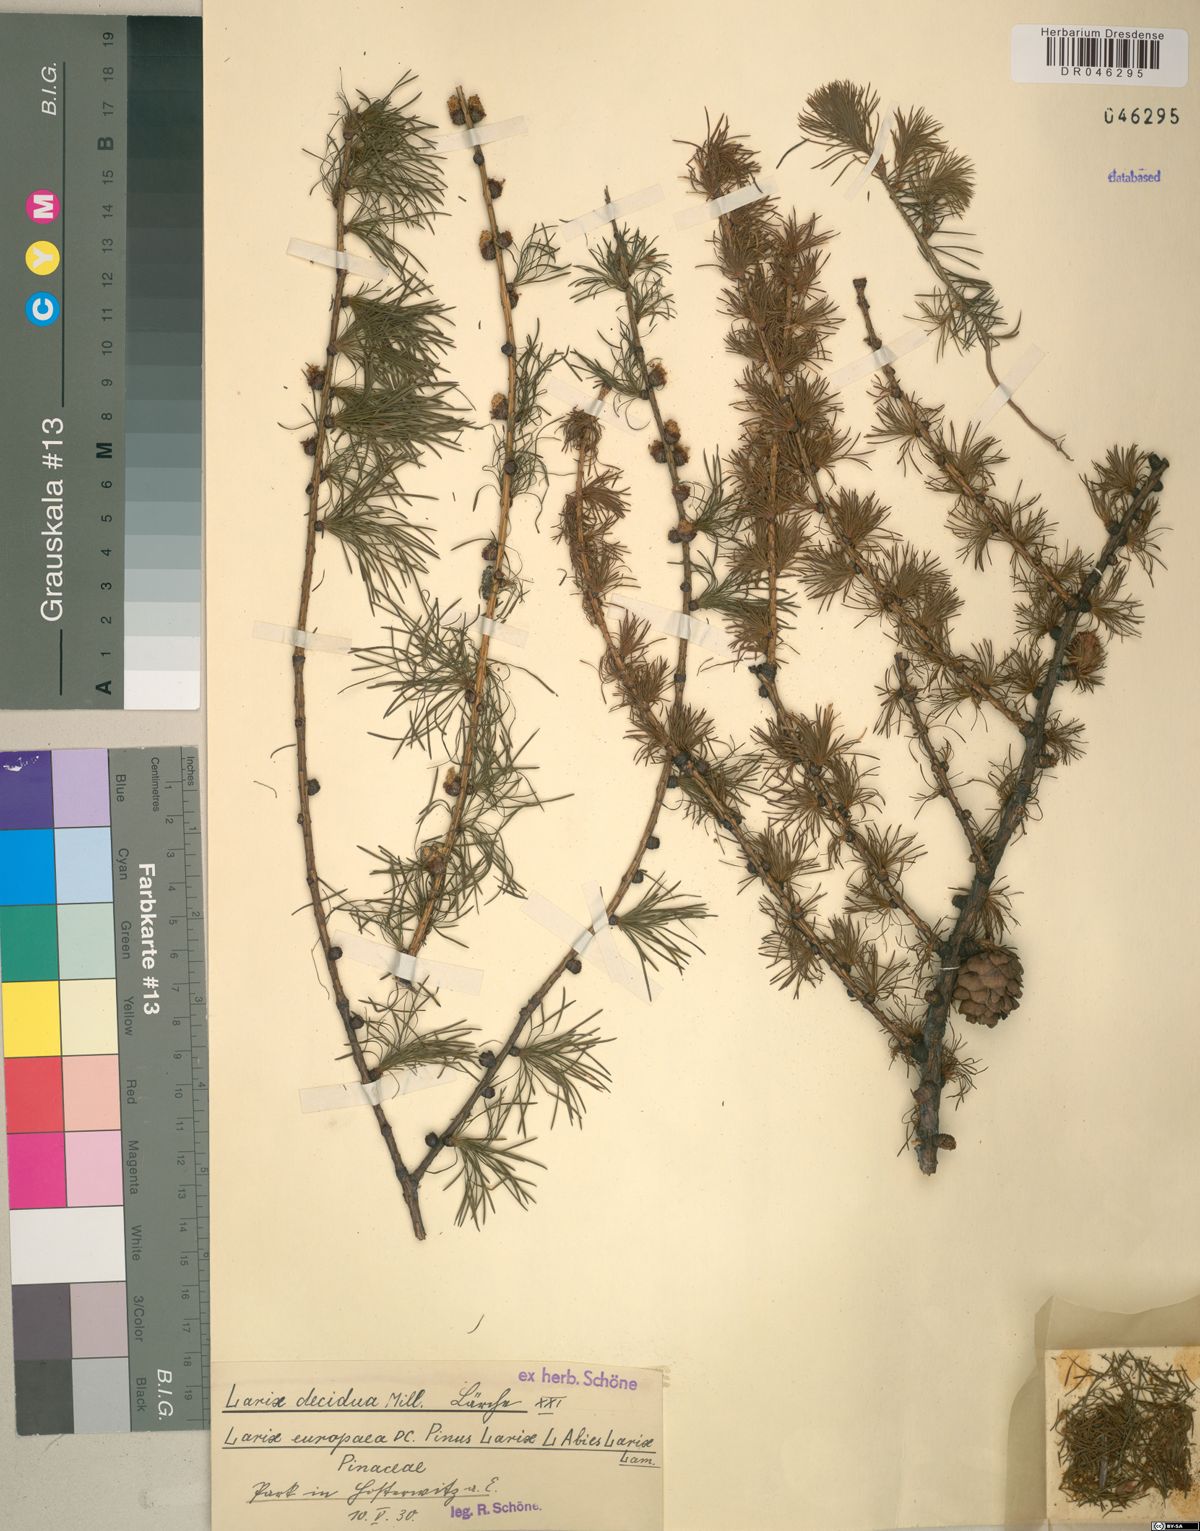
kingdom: Plantae
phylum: Tracheophyta
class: Pinopsida
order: Pinales
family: Pinaceae
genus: Larix
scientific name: Larix decidua
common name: European larch
